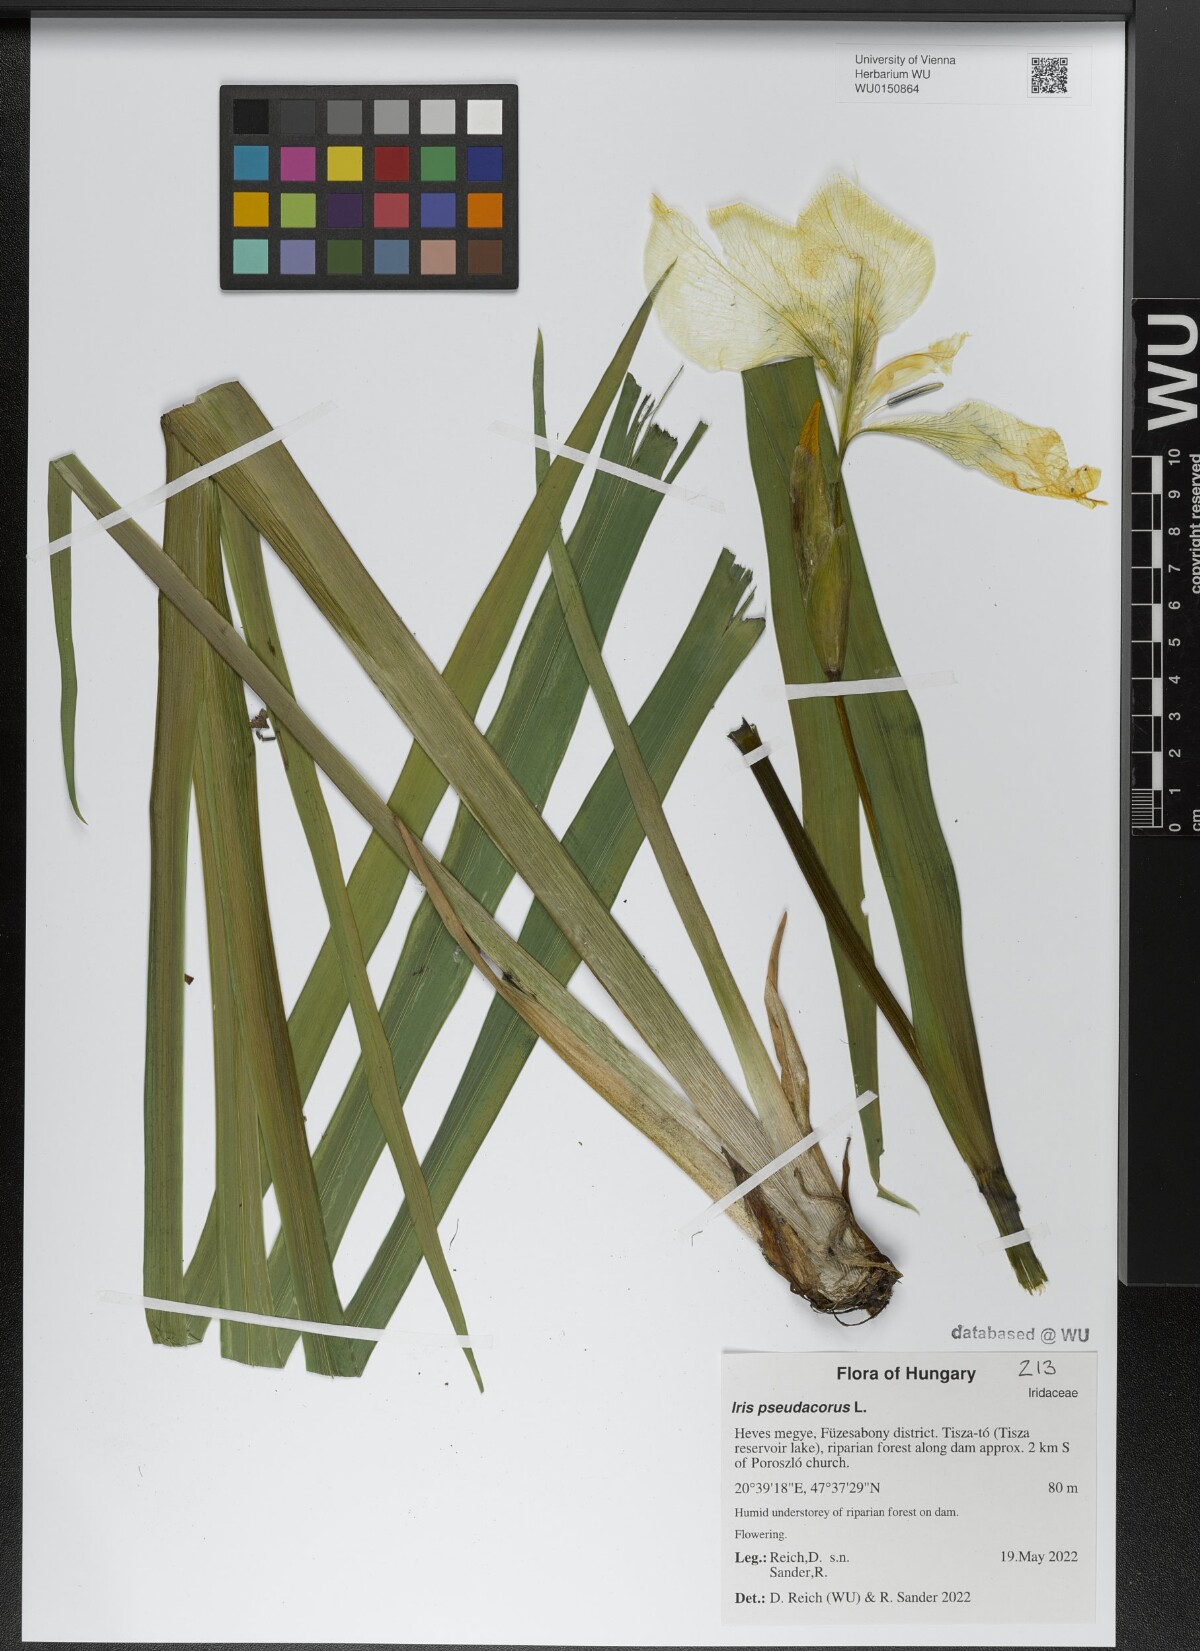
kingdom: Plantae
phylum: Tracheophyta
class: Liliopsida
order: Asparagales
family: Iridaceae
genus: Iris
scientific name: Iris pseudacorus
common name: Yellow flag
